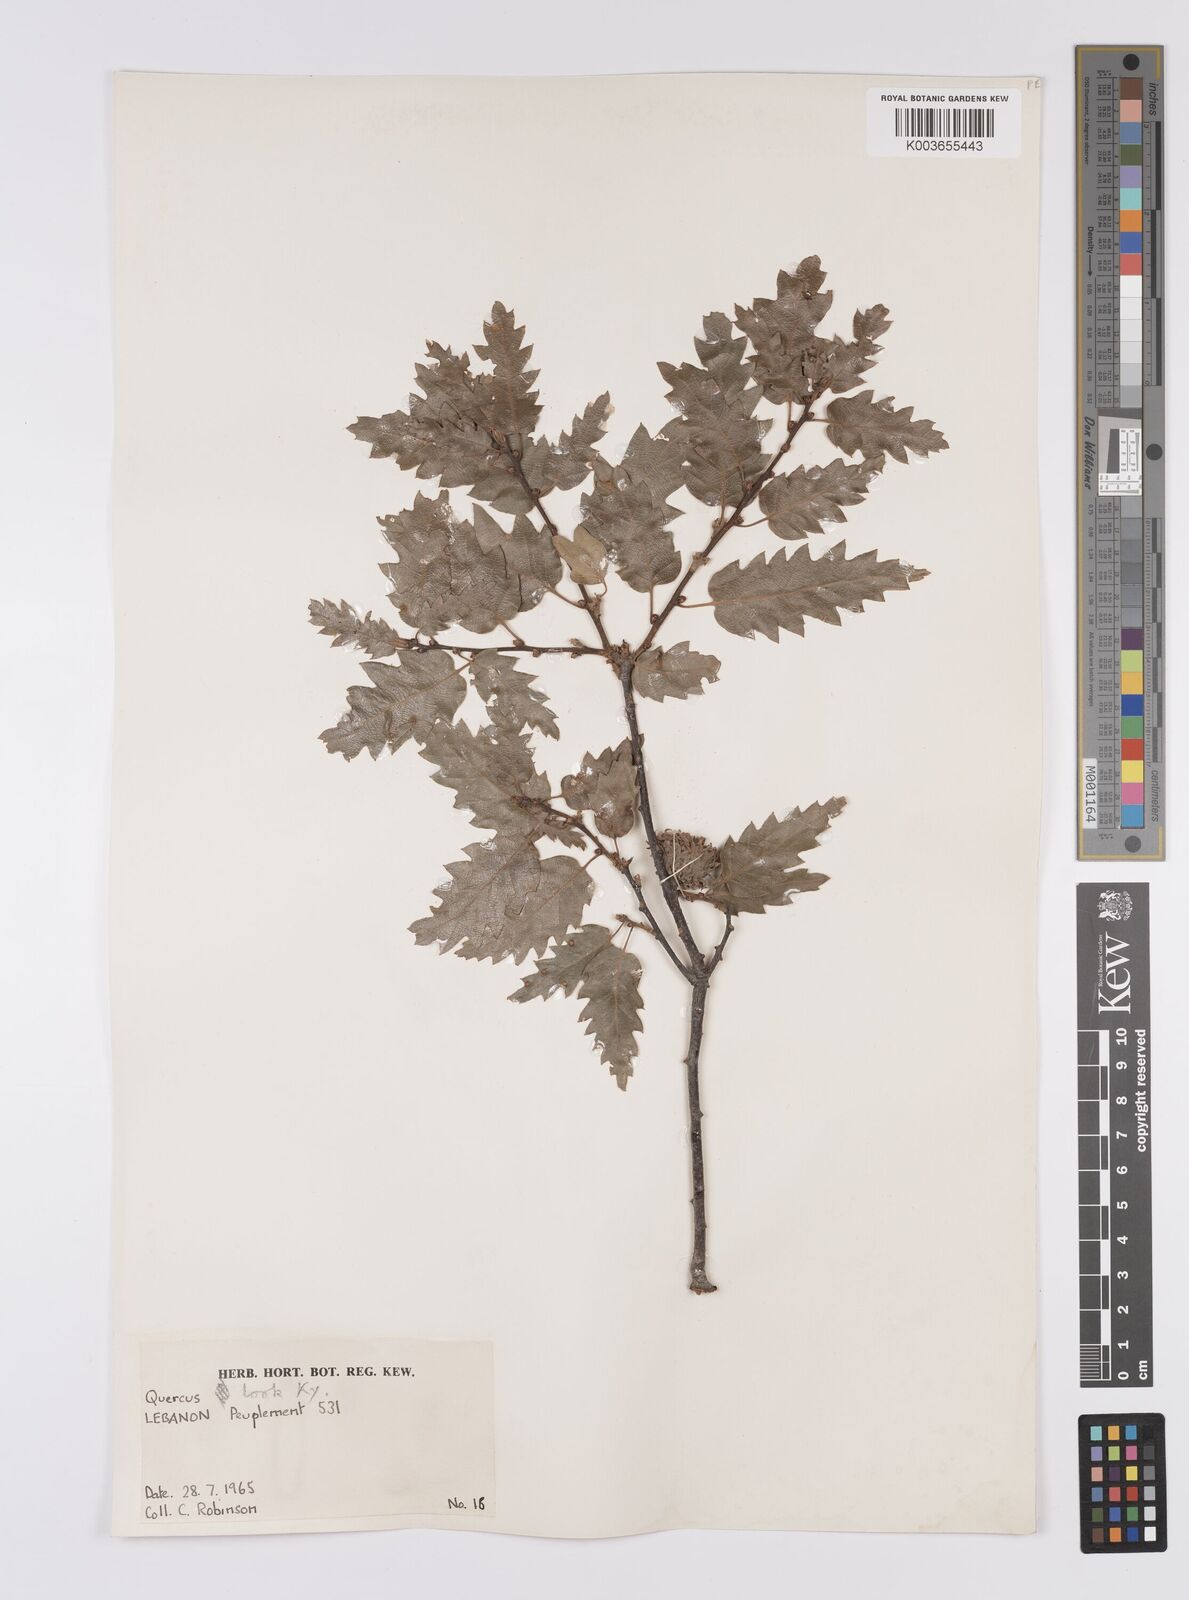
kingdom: Plantae
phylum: Tracheophyta
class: Magnoliopsida
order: Fagales
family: Fagaceae
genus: Quercus
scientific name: Quercus look
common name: Look oak
